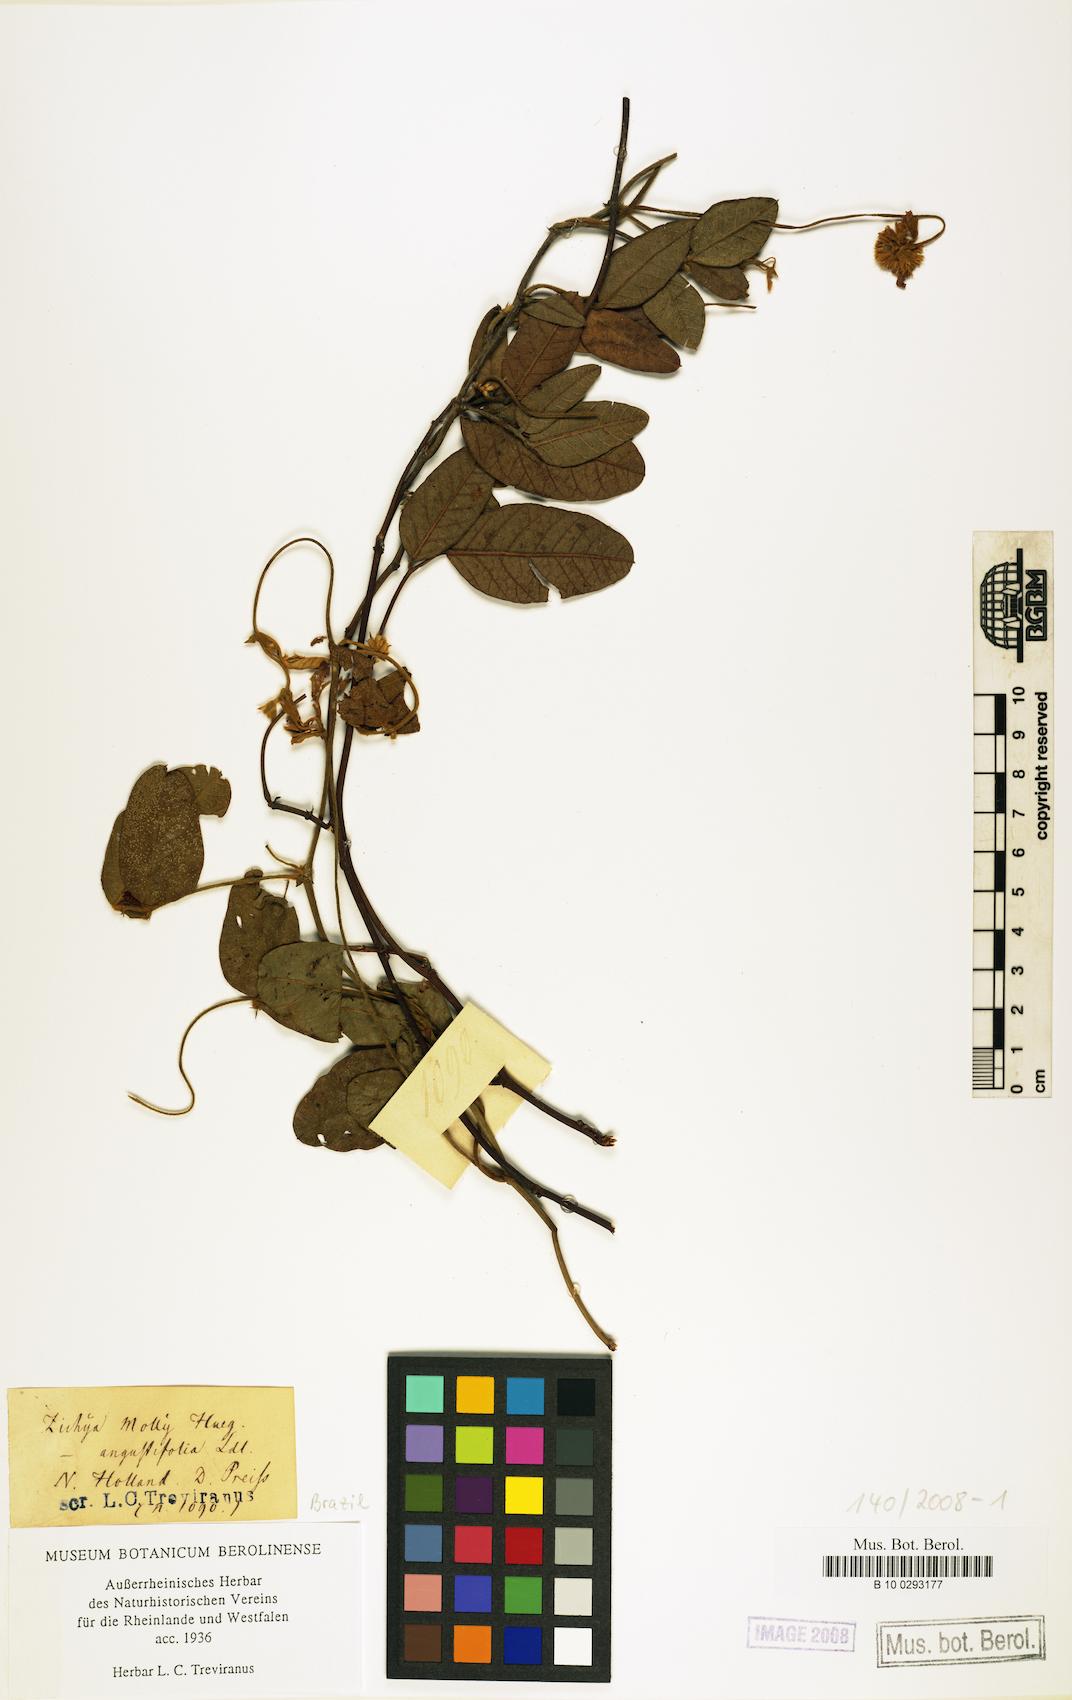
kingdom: Plantae
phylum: Tracheophyta
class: Magnoliopsida
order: Fabales
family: Fabaceae
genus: Kennedia
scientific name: Kennedia Zichya molly
